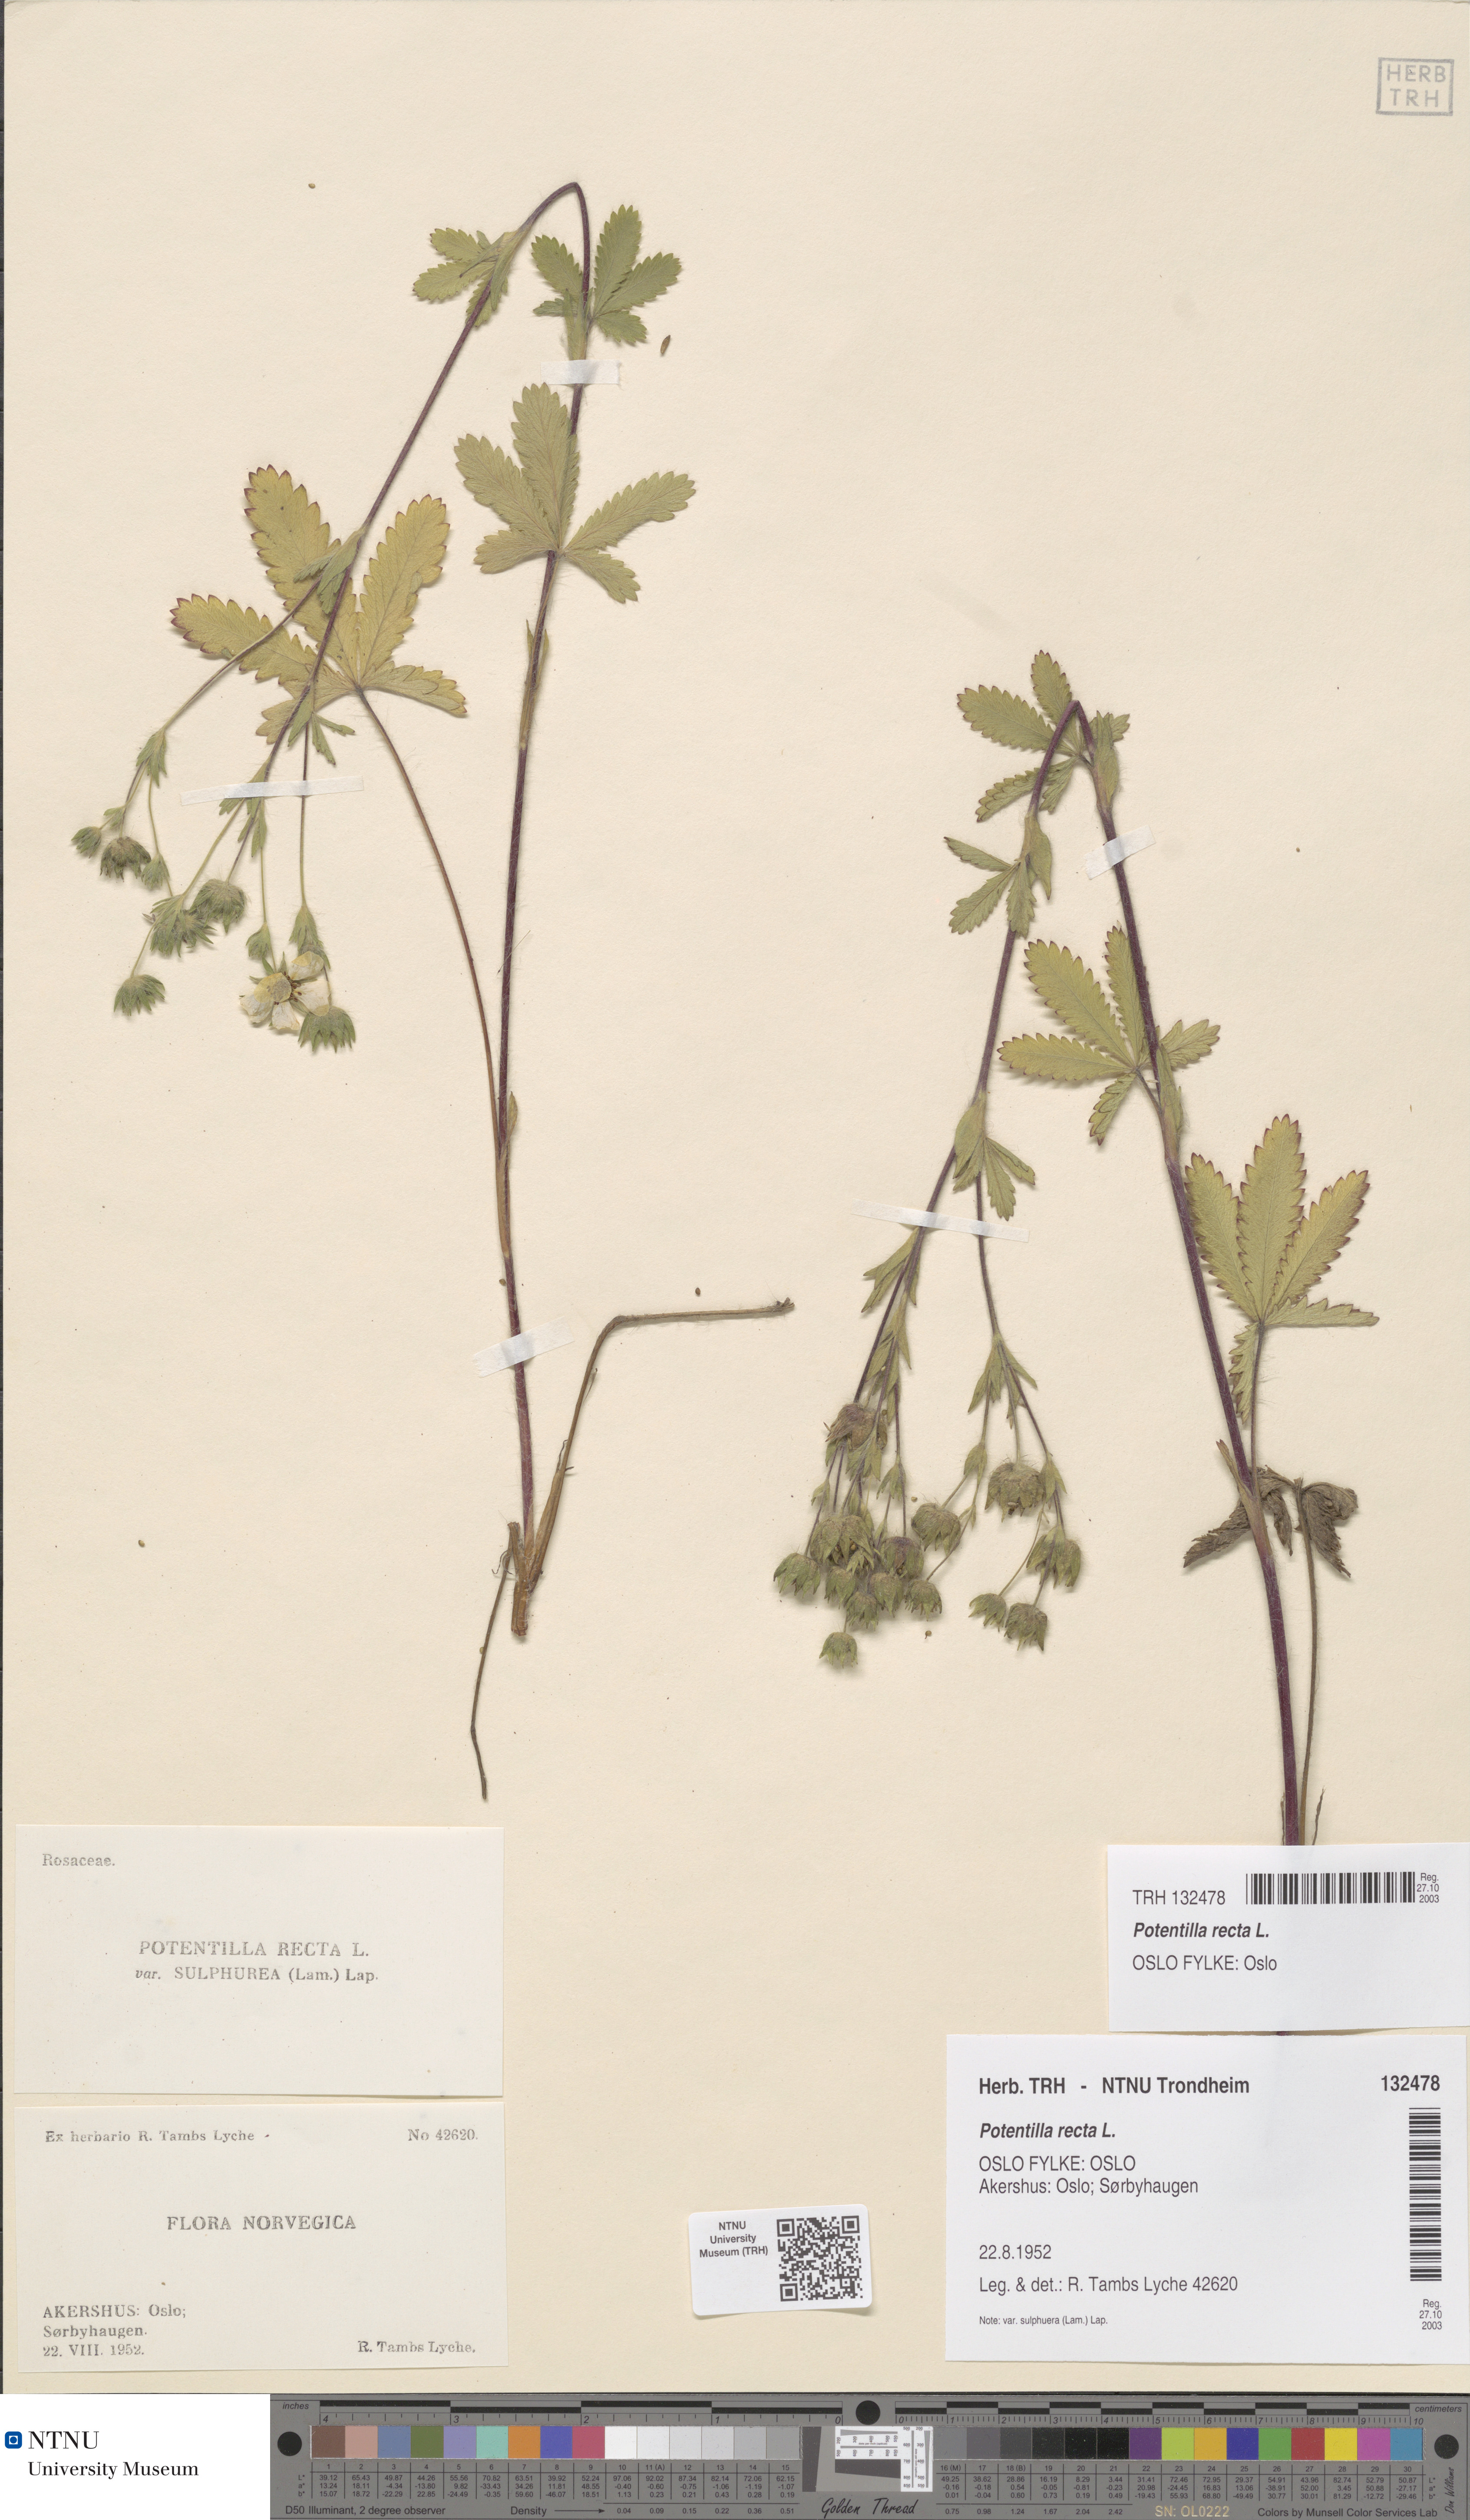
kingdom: Plantae
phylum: Tracheophyta
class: Magnoliopsida
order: Rosales
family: Rosaceae
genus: Potentilla
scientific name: Potentilla recta
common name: Sulphur cinquefoil
